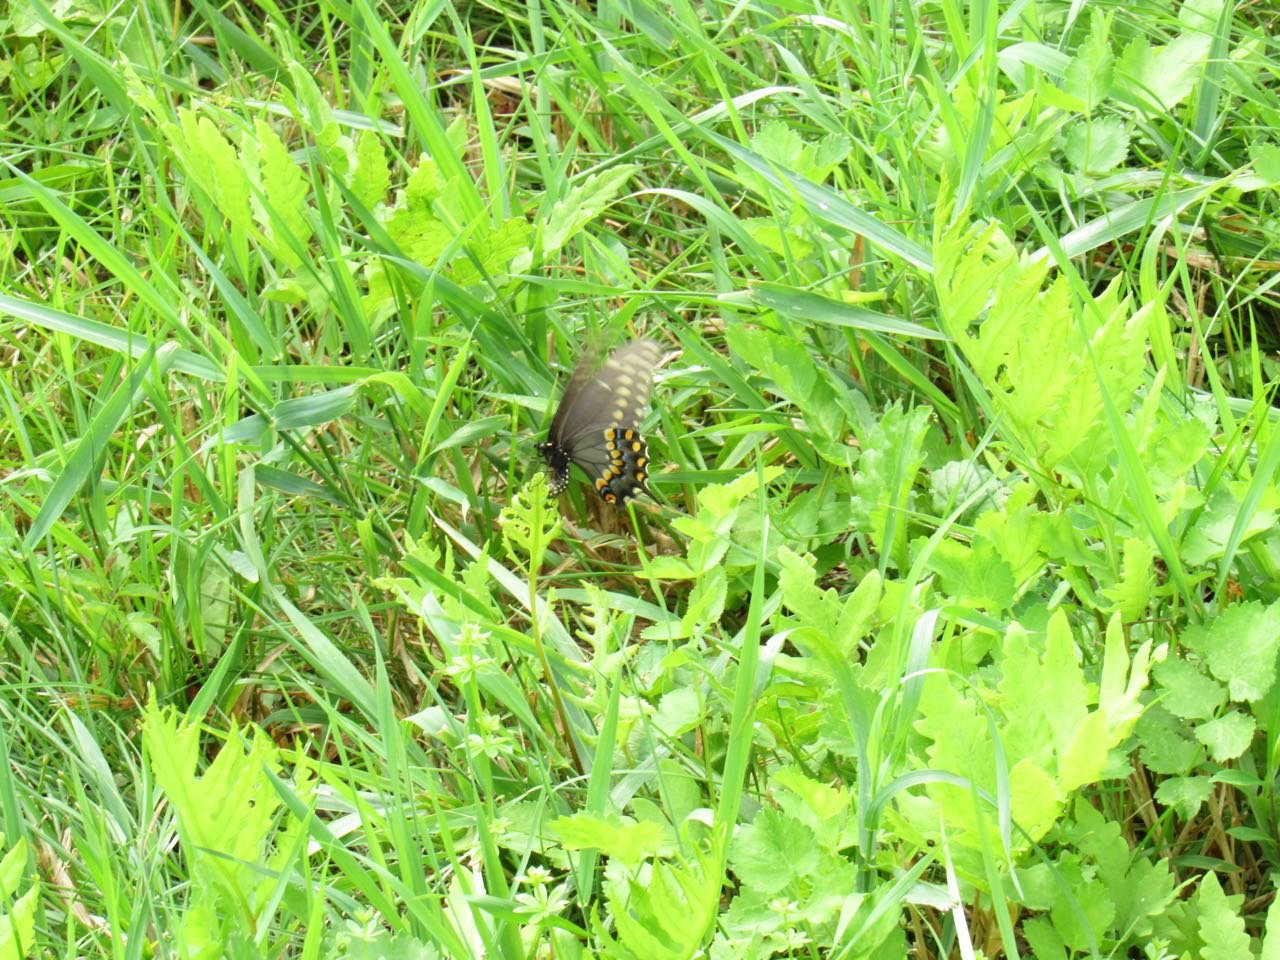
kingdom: Animalia
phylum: Arthropoda
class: Insecta
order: Lepidoptera
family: Papilionidae
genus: Papilio
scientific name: Papilio polyxenes
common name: Black Swallowtail
